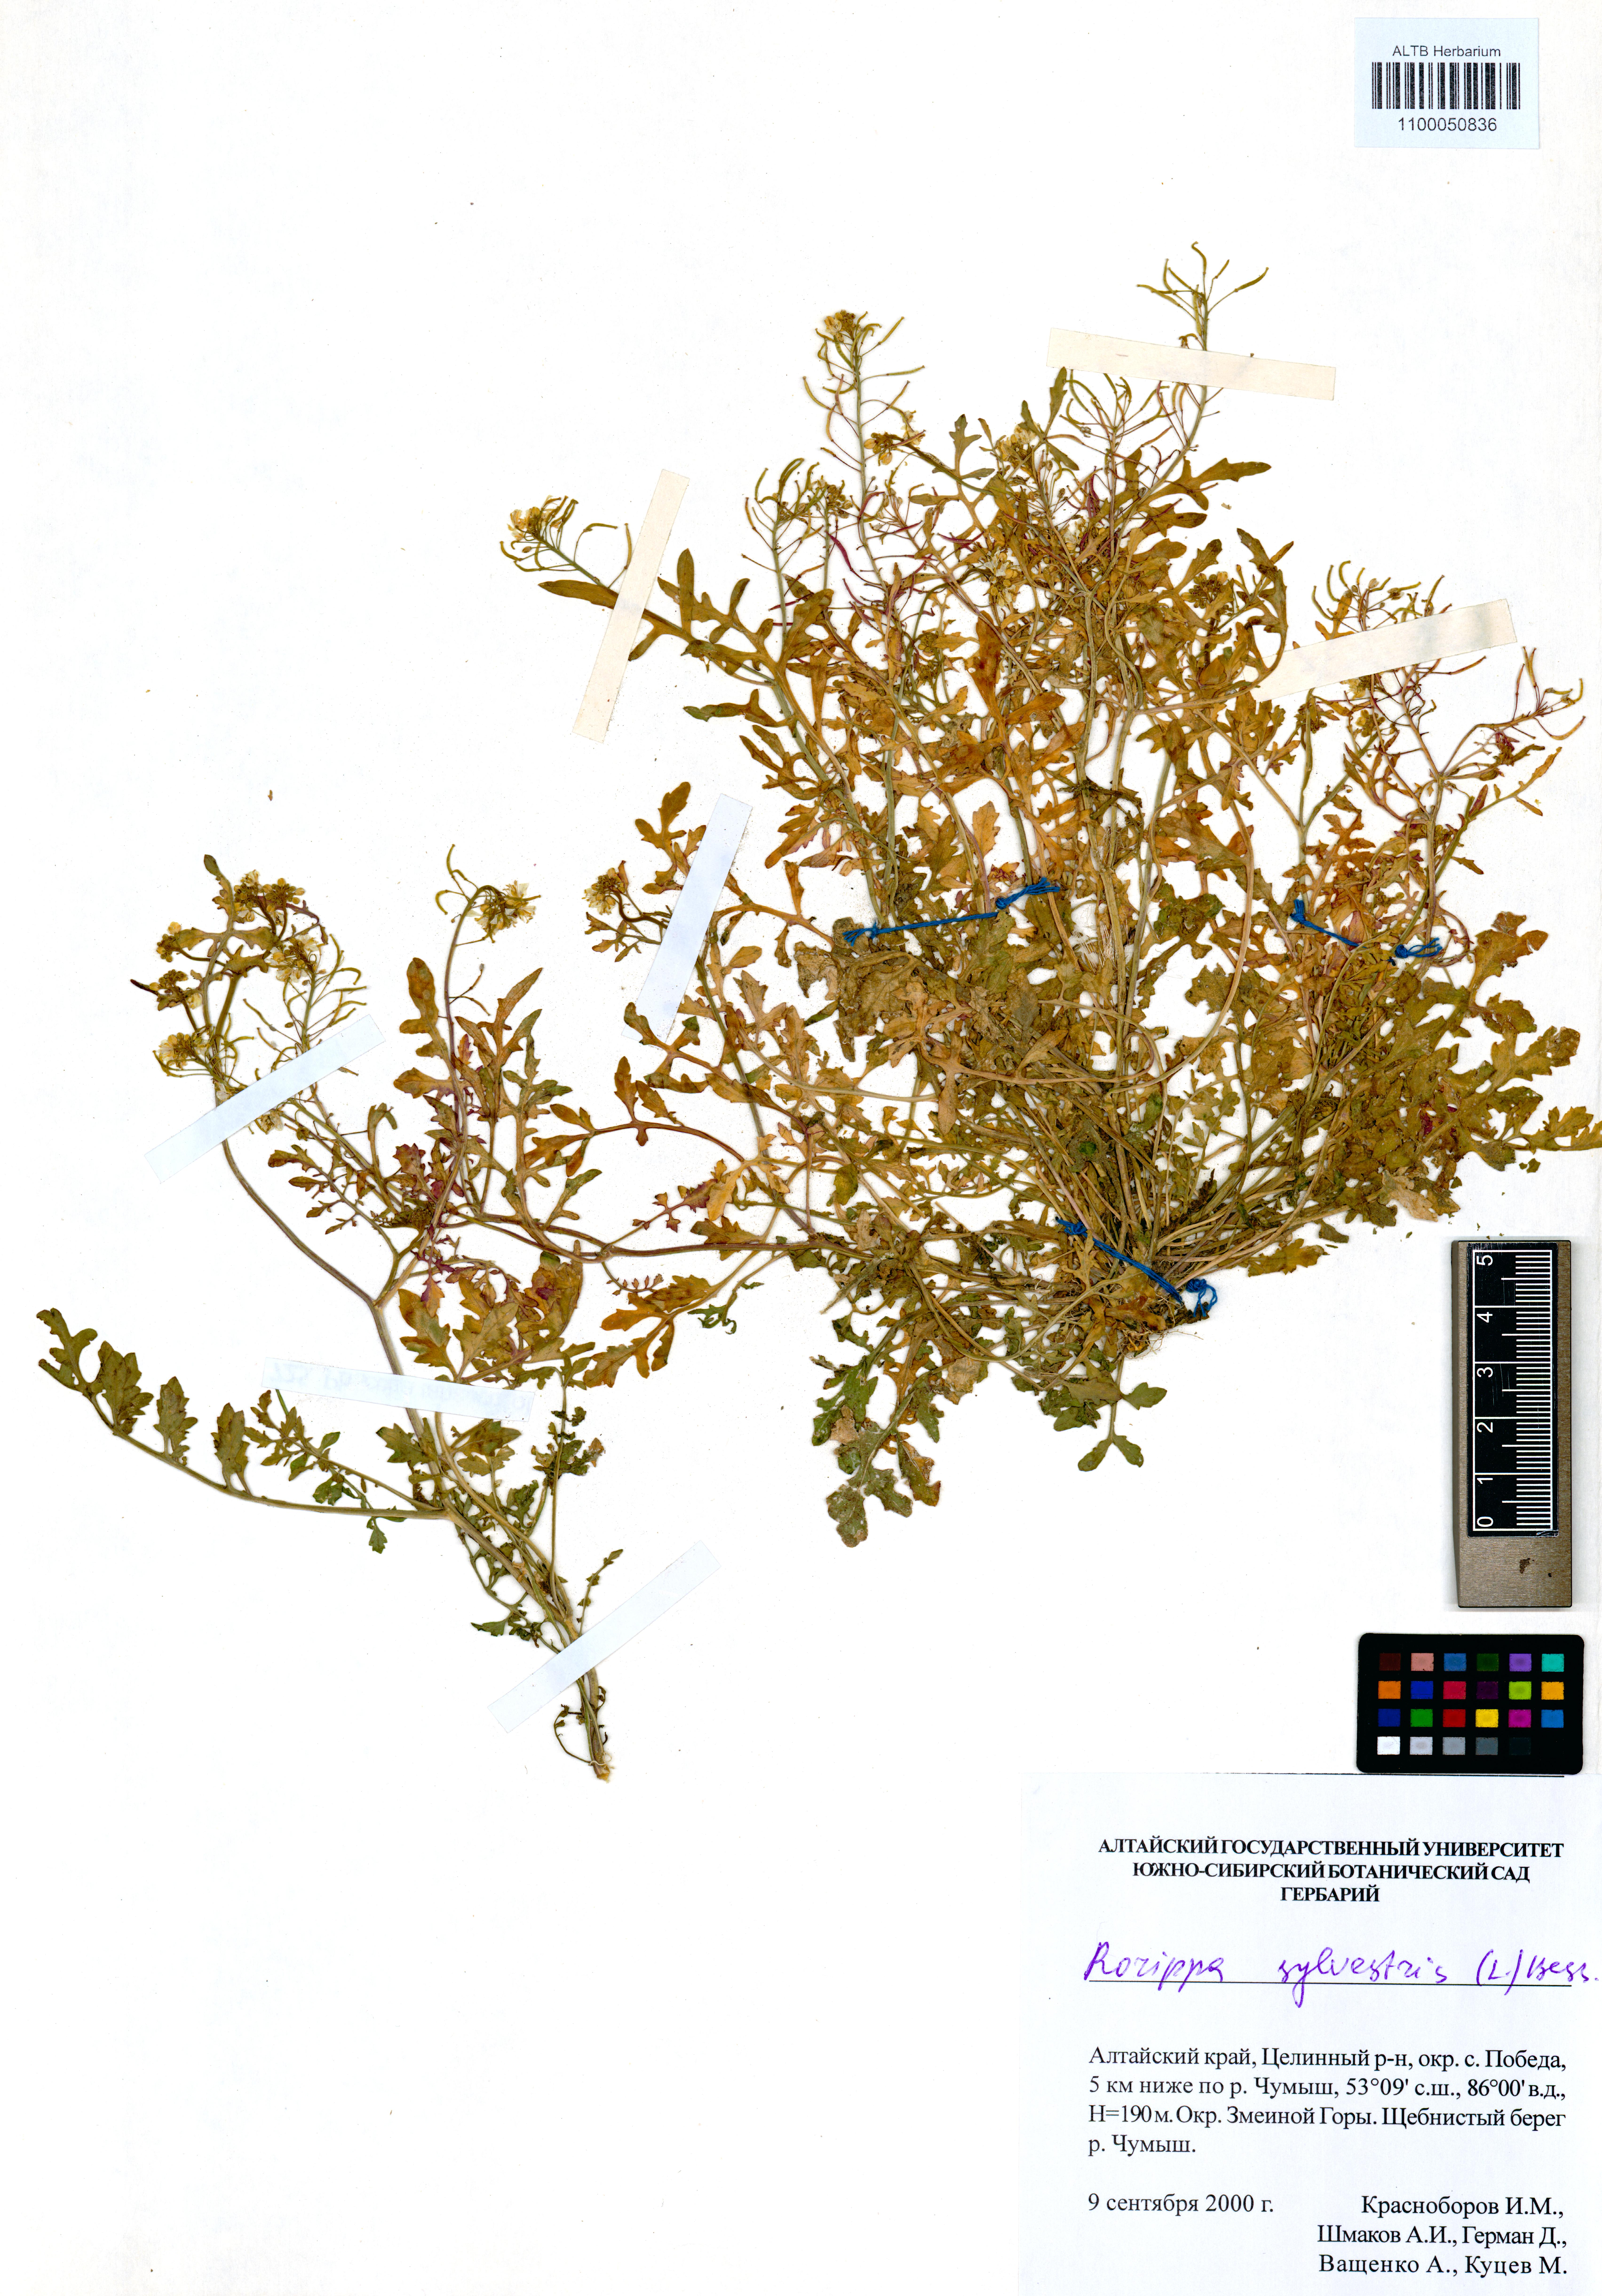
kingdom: Plantae
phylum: Tracheophyta
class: Magnoliopsida
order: Brassicales
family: Brassicaceae
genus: Rorippa
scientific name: Rorippa sylvestris
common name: Creeping yellowcress
